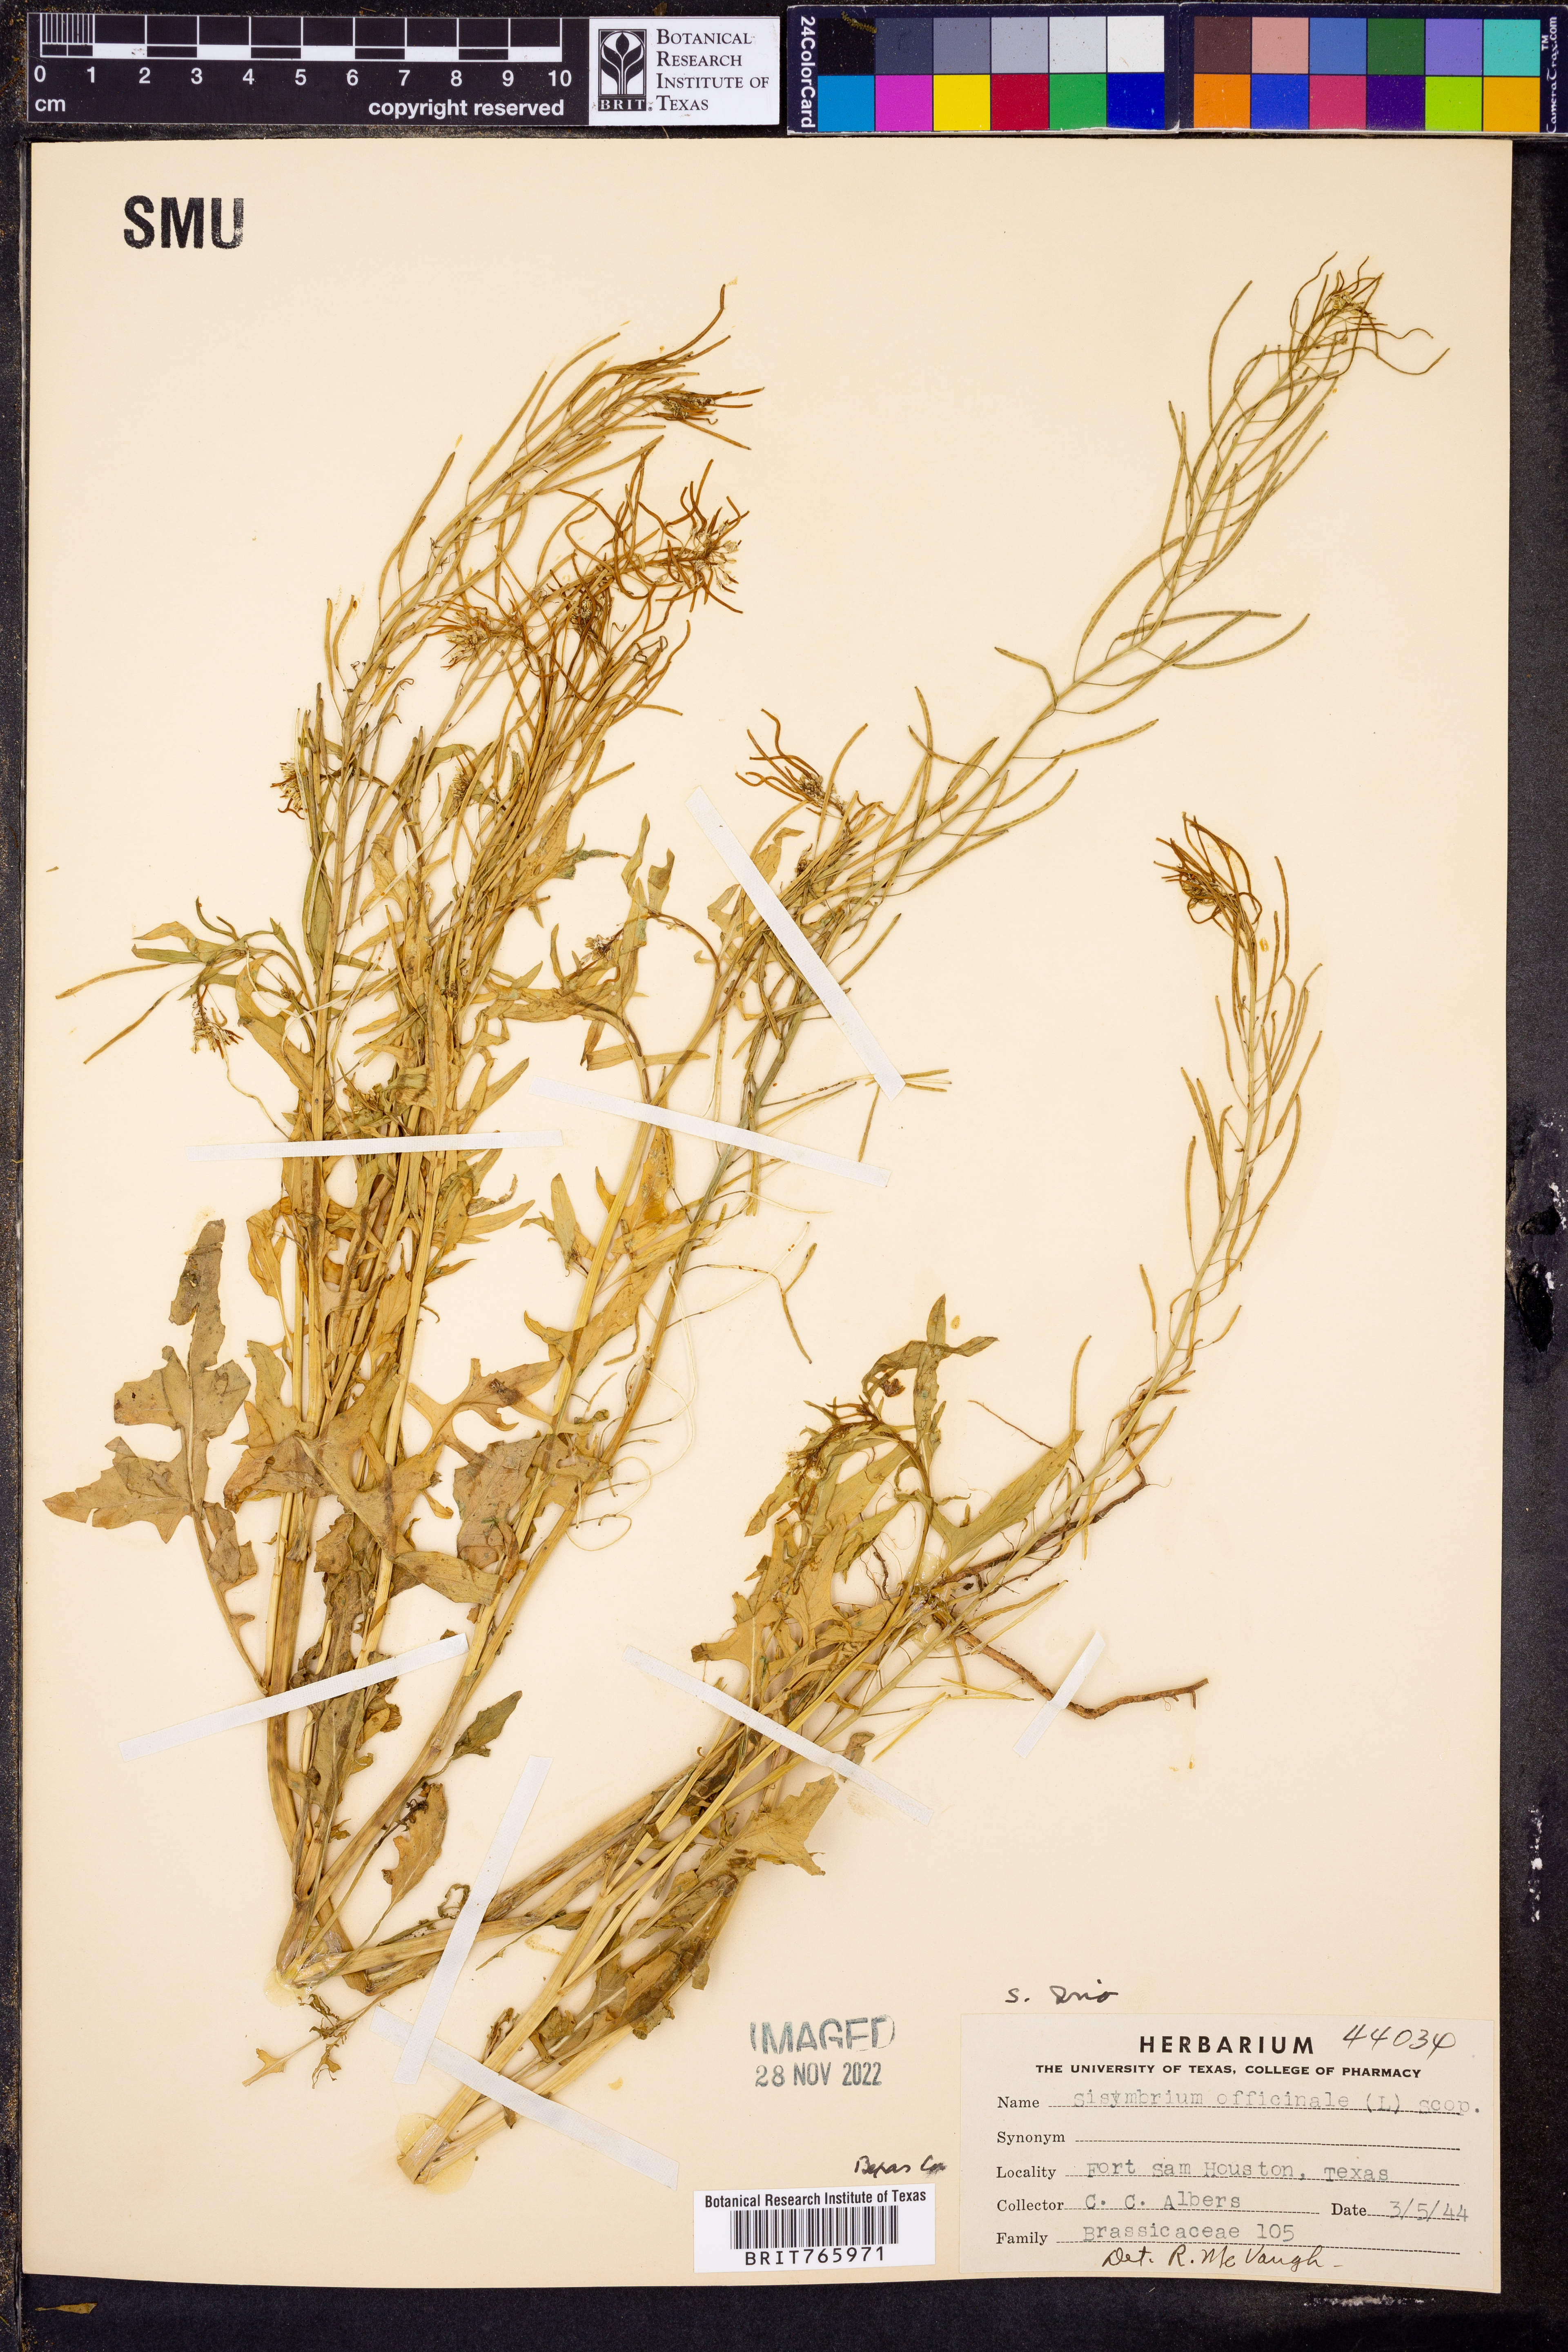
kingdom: Plantae
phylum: Tracheophyta
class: Magnoliopsida
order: Brassicales
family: Brassicaceae
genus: Sisymbrium
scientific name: Sisymbrium irio
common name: London rocket
